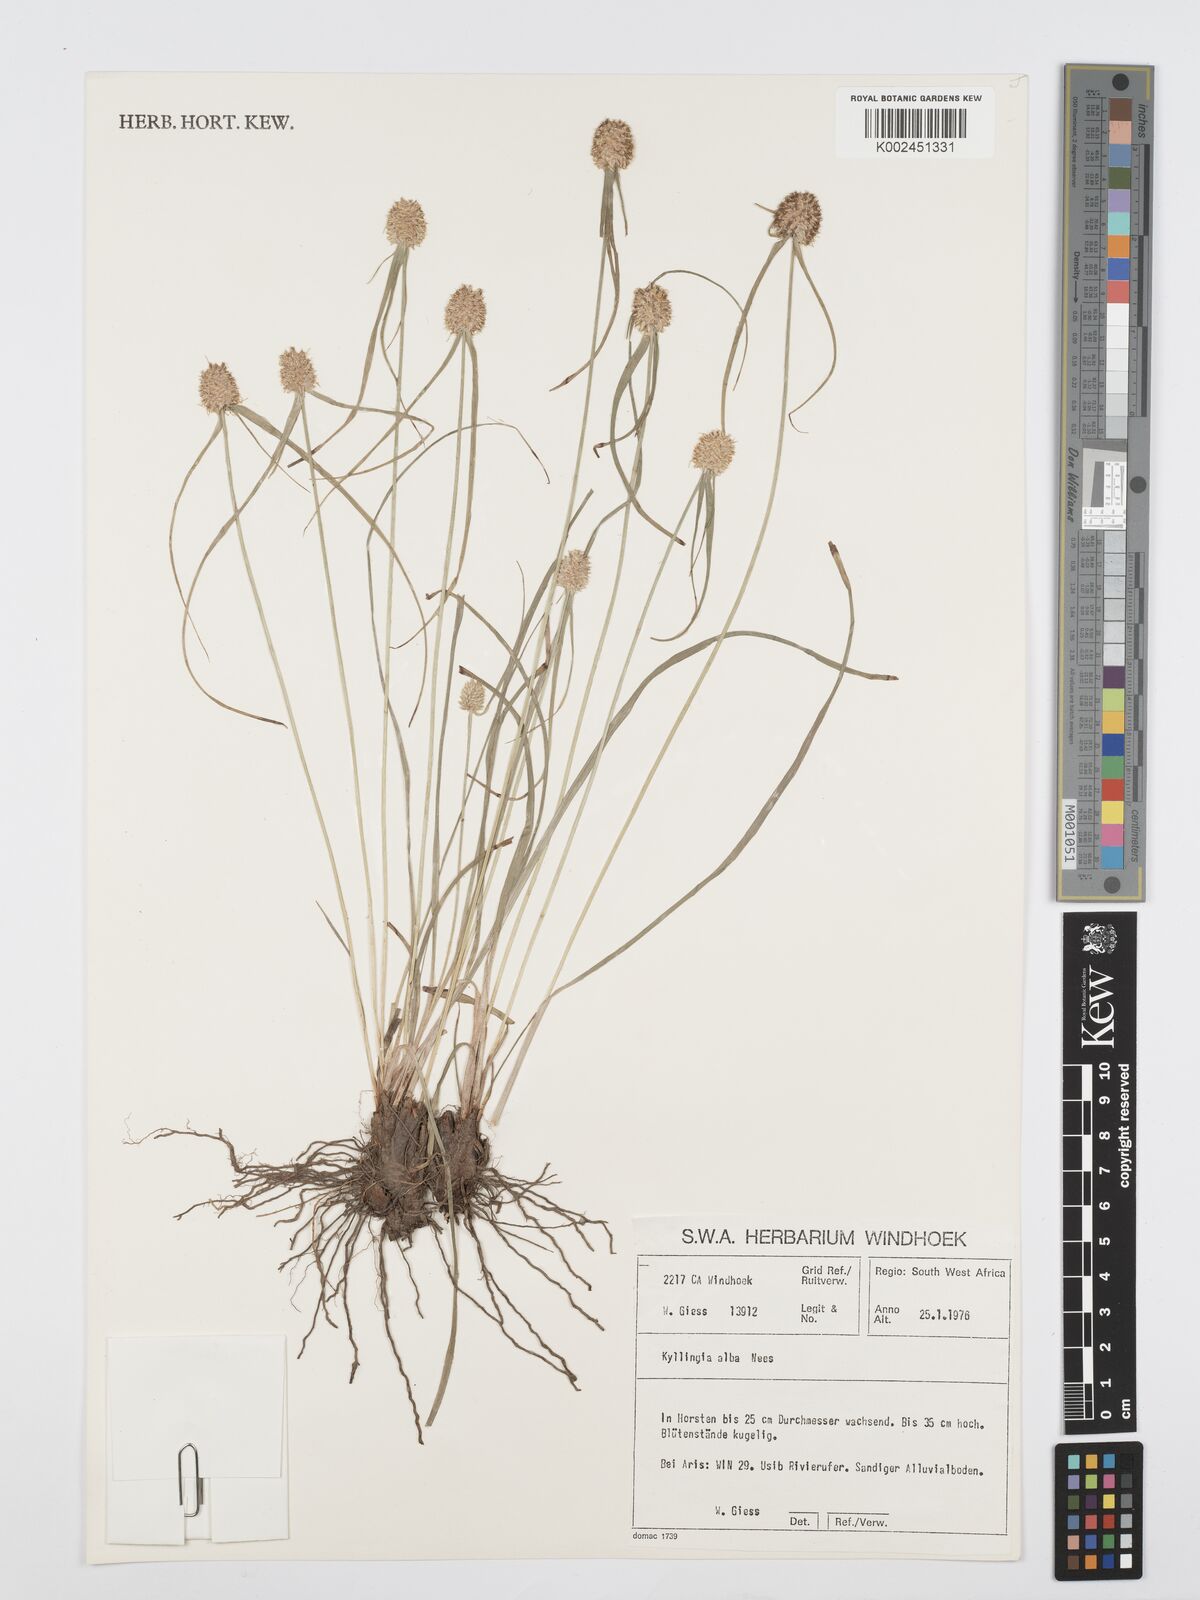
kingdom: Plantae
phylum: Tracheophyta
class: Liliopsida
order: Poales
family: Cyperaceae
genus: Cyperus
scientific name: Cyperus
